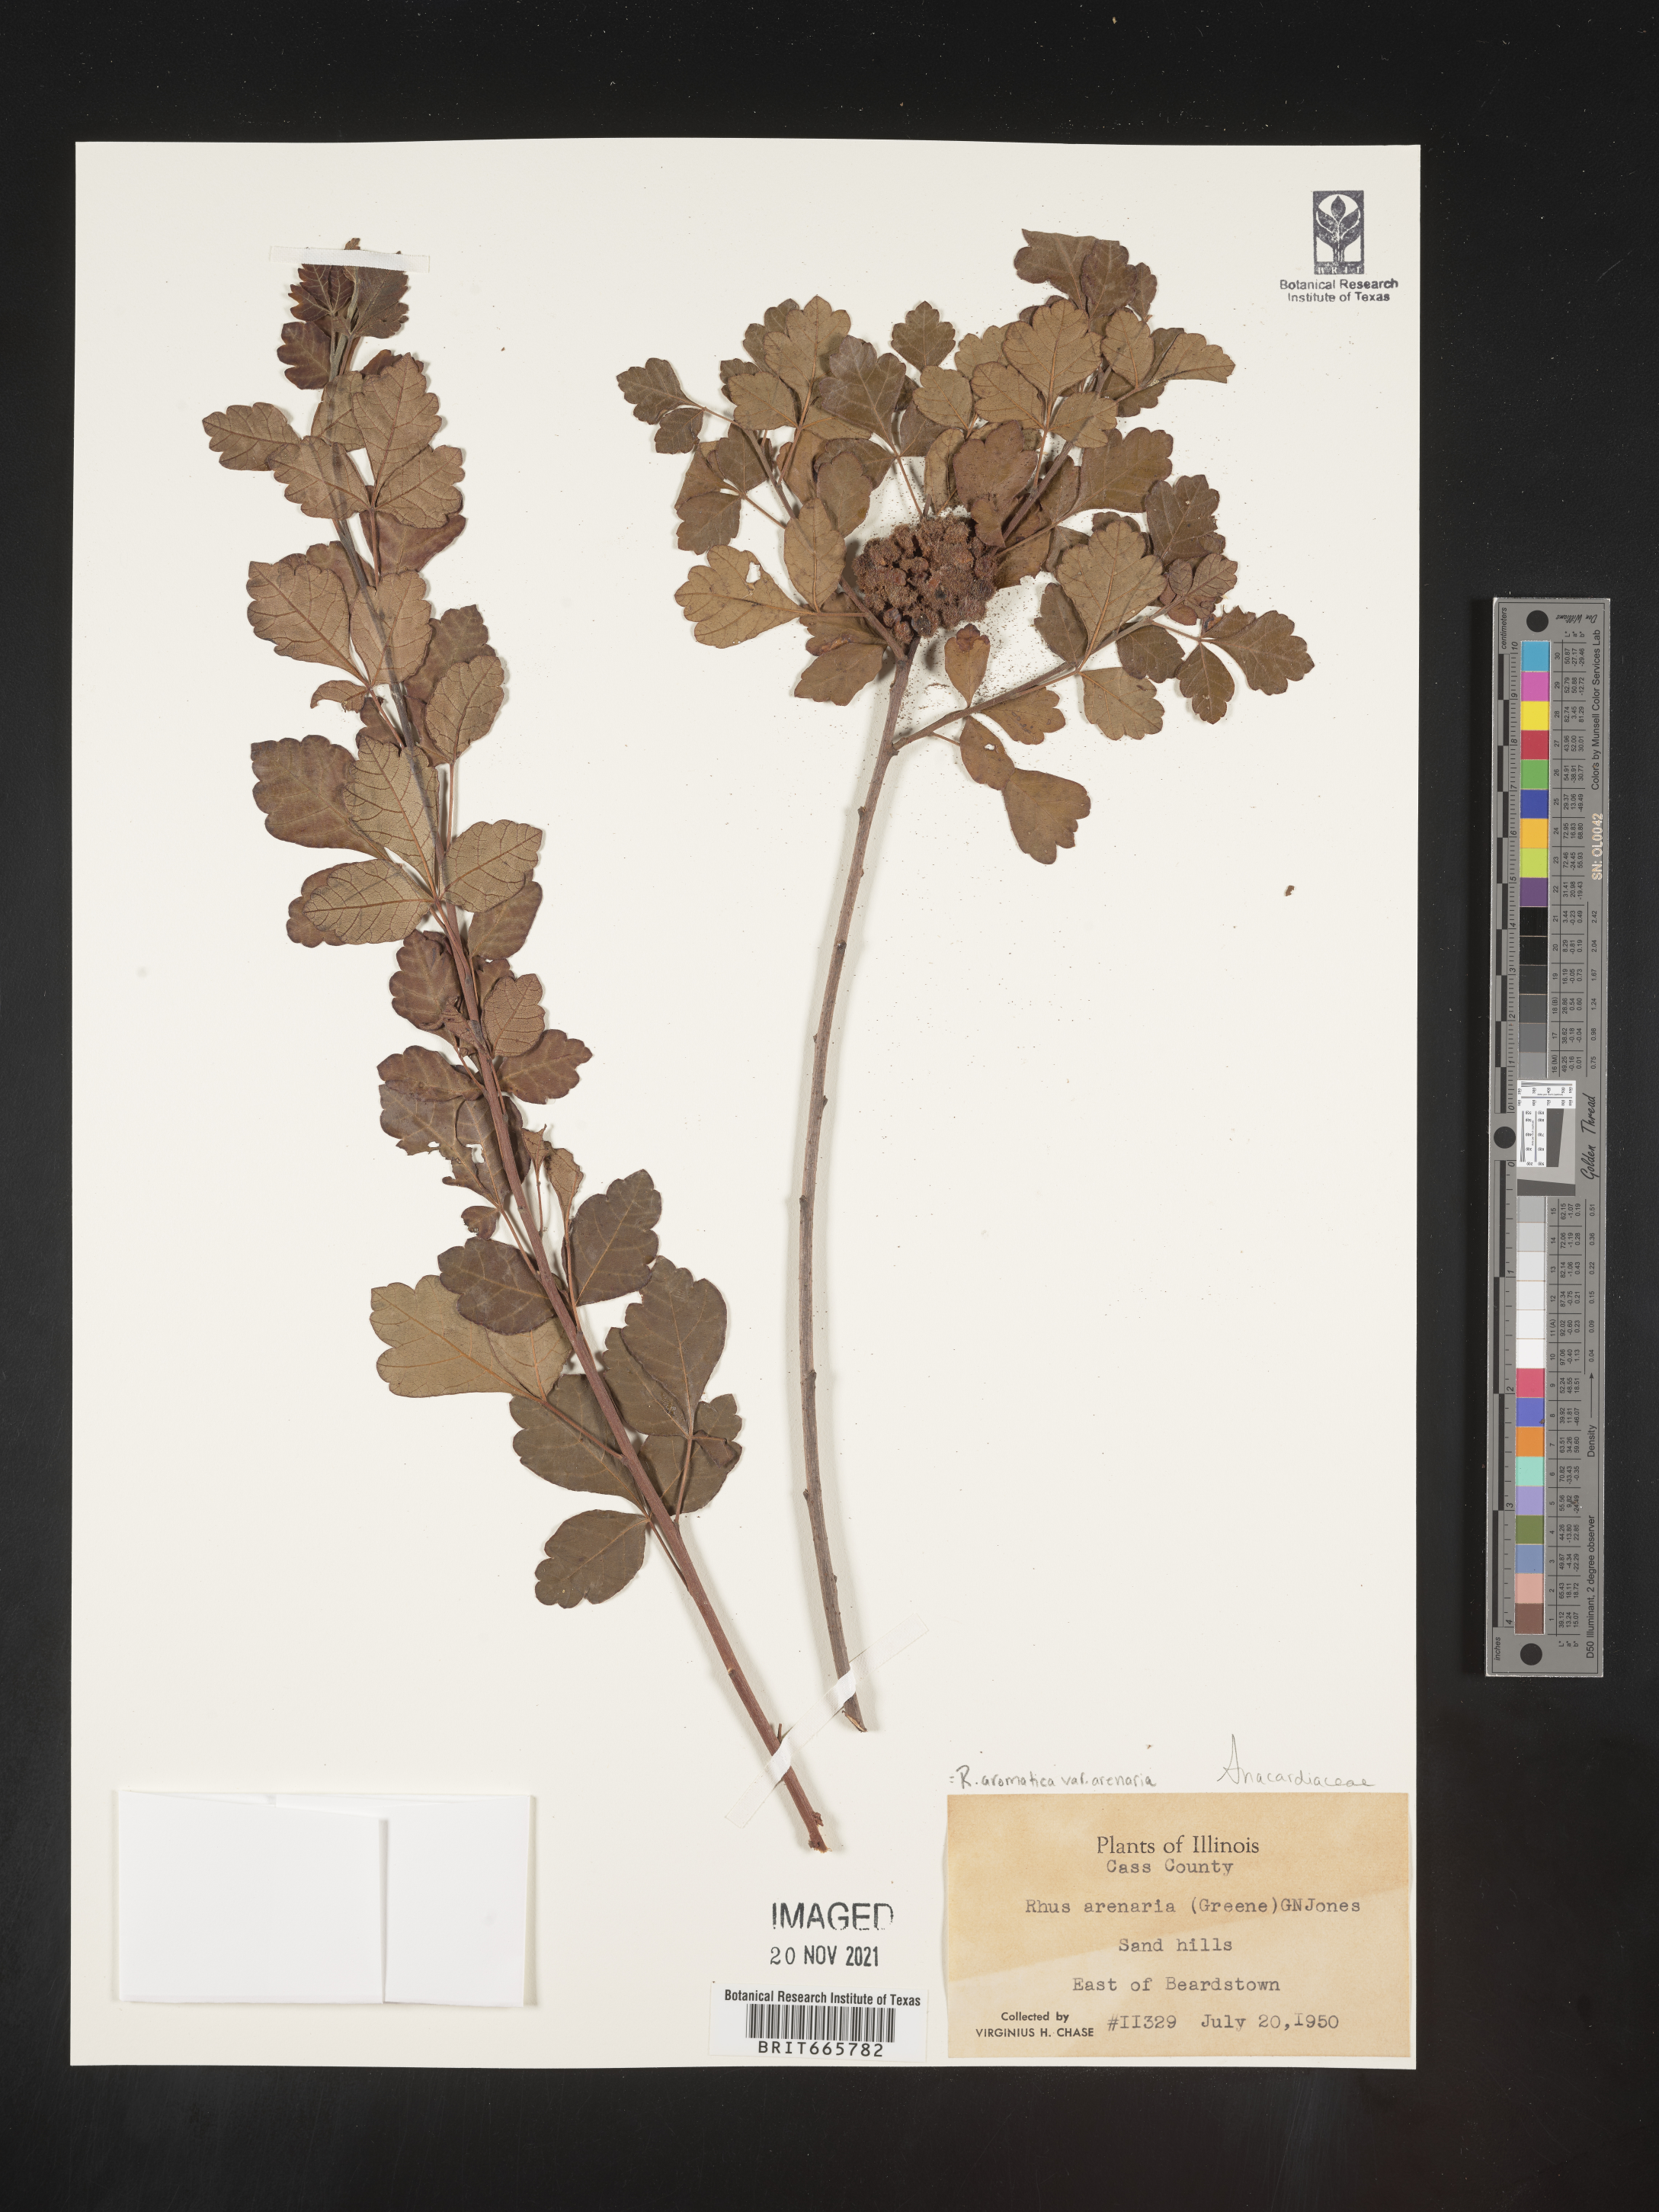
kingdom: Plantae
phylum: Tracheophyta
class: Magnoliopsida
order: Sapindales
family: Anacardiaceae
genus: Rhus
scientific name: Rhus aromatica
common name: Aromatic sumac
